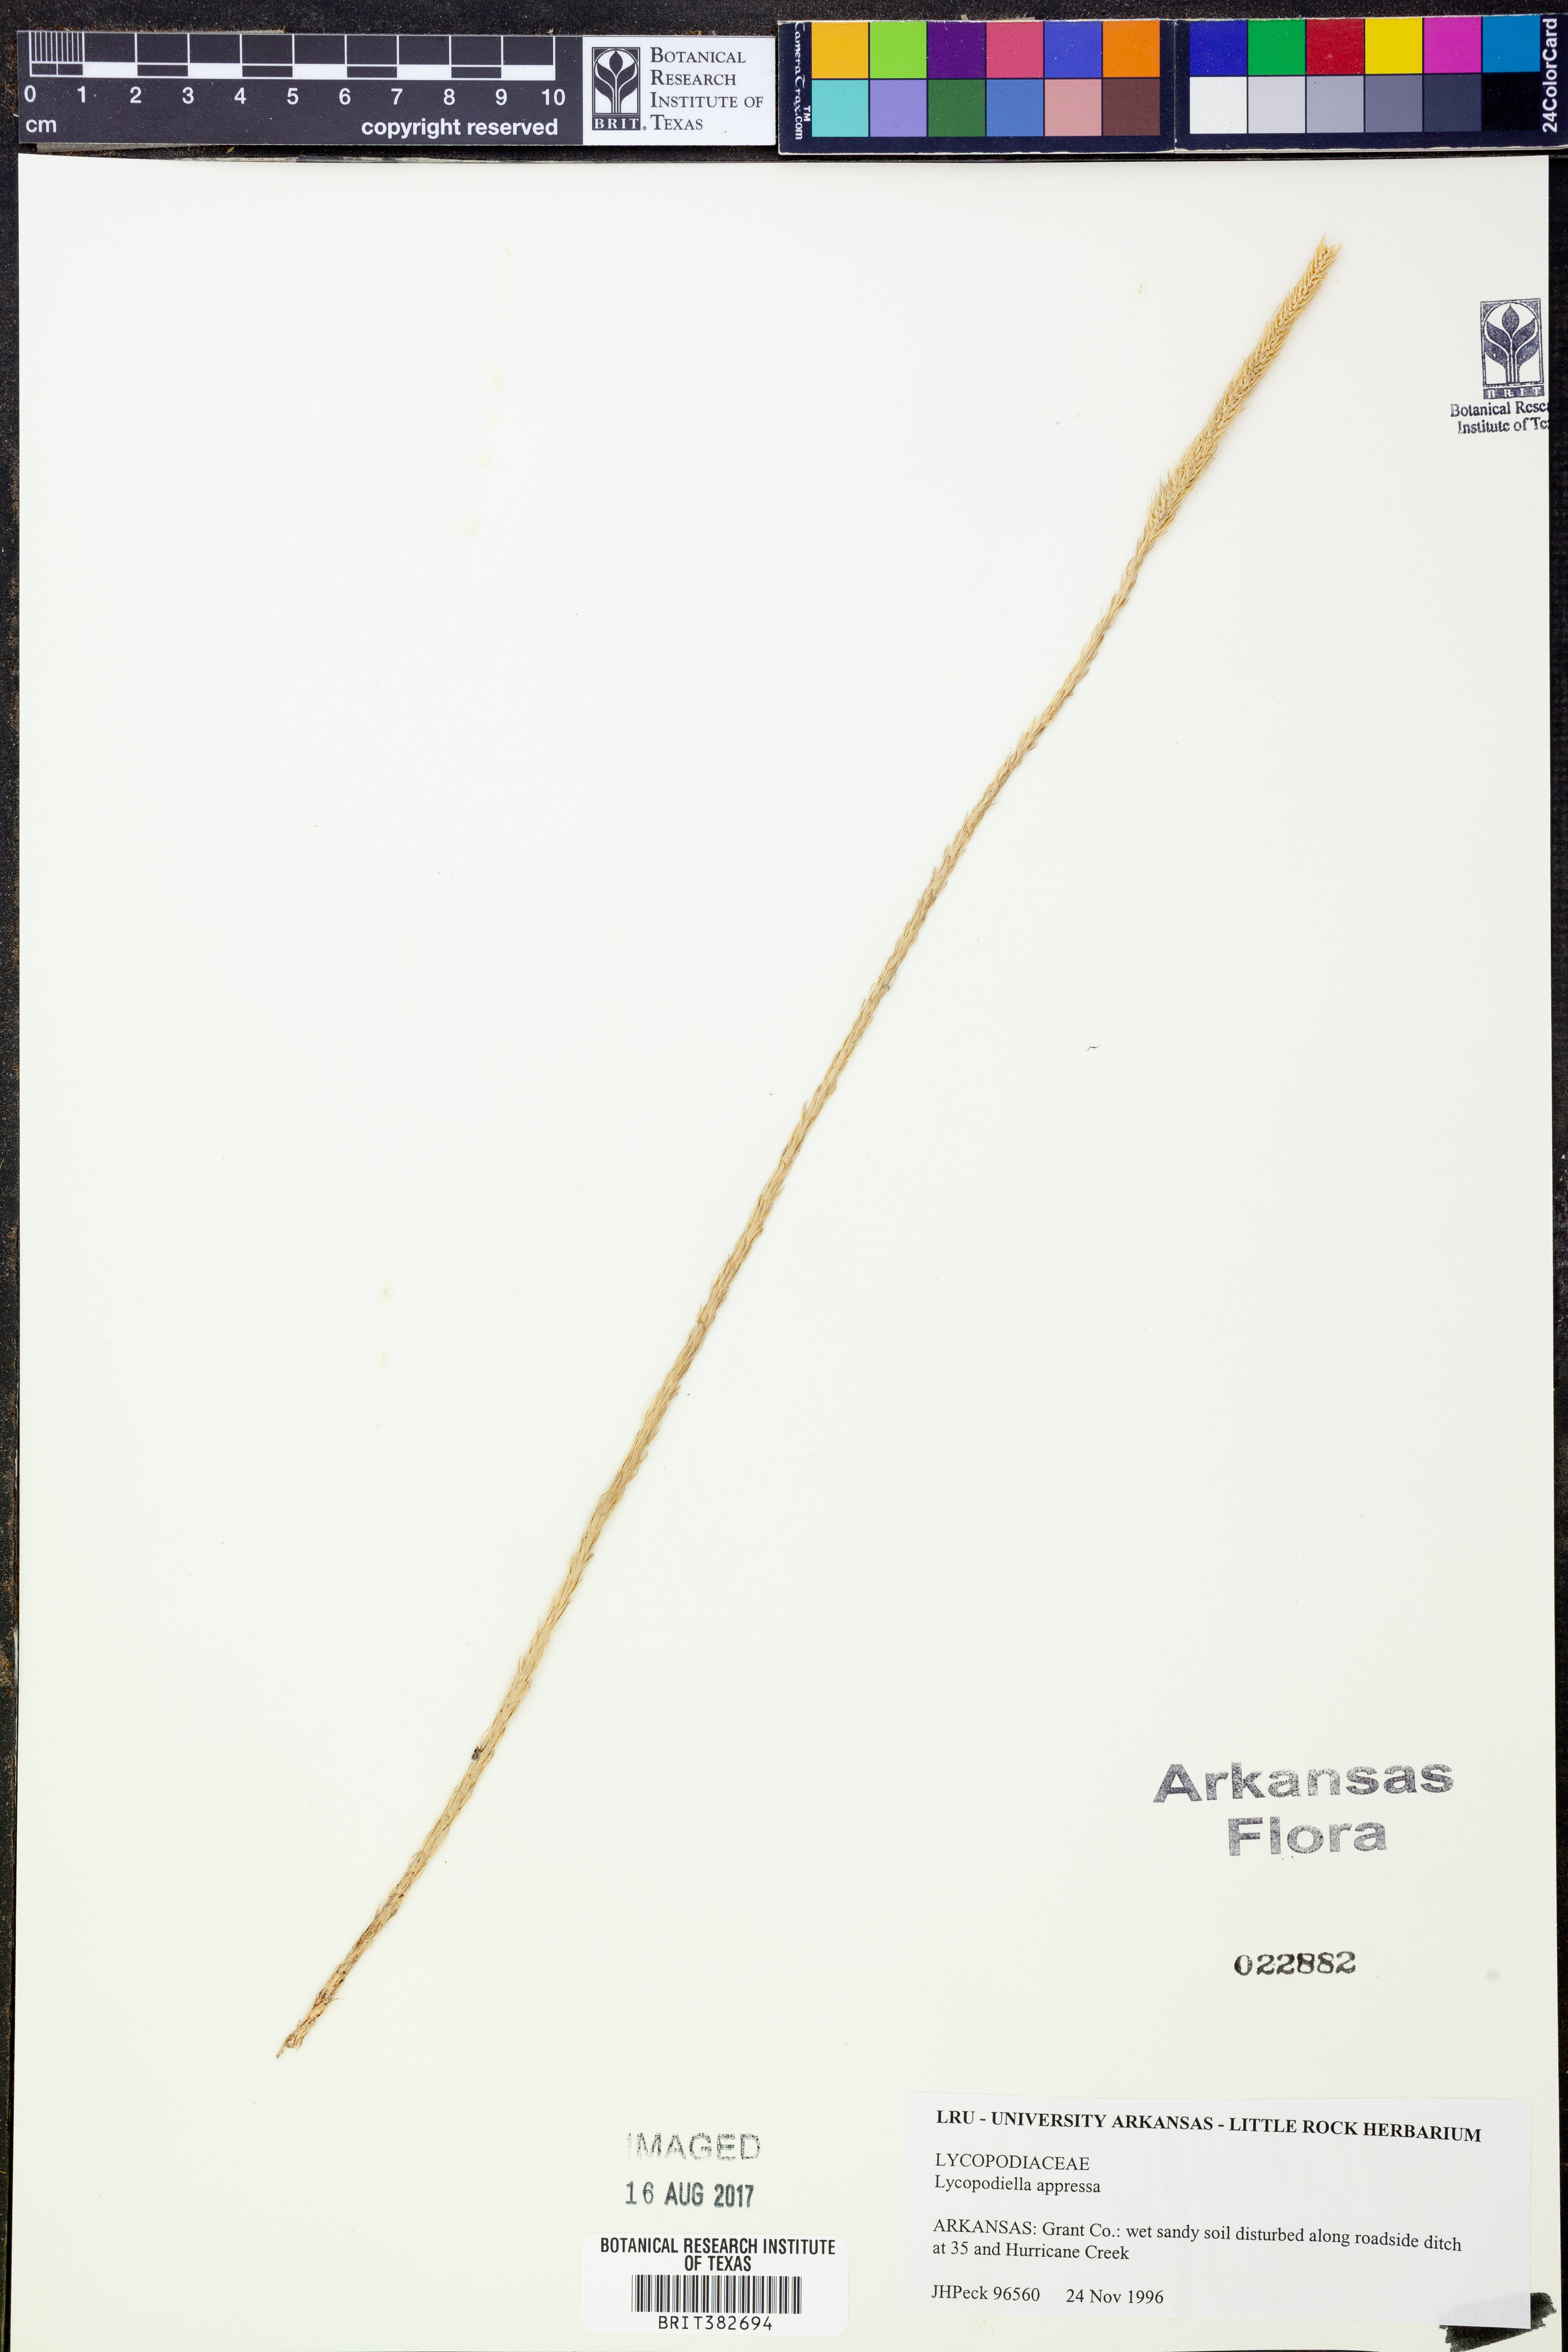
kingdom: Plantae
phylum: Tracheophyta
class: Lycopodiopsida
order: Lycopodiales
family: Lycopodiaceae
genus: Lycopodiella
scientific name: Lycopodiella appressa
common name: Appressed bog clubmoss
